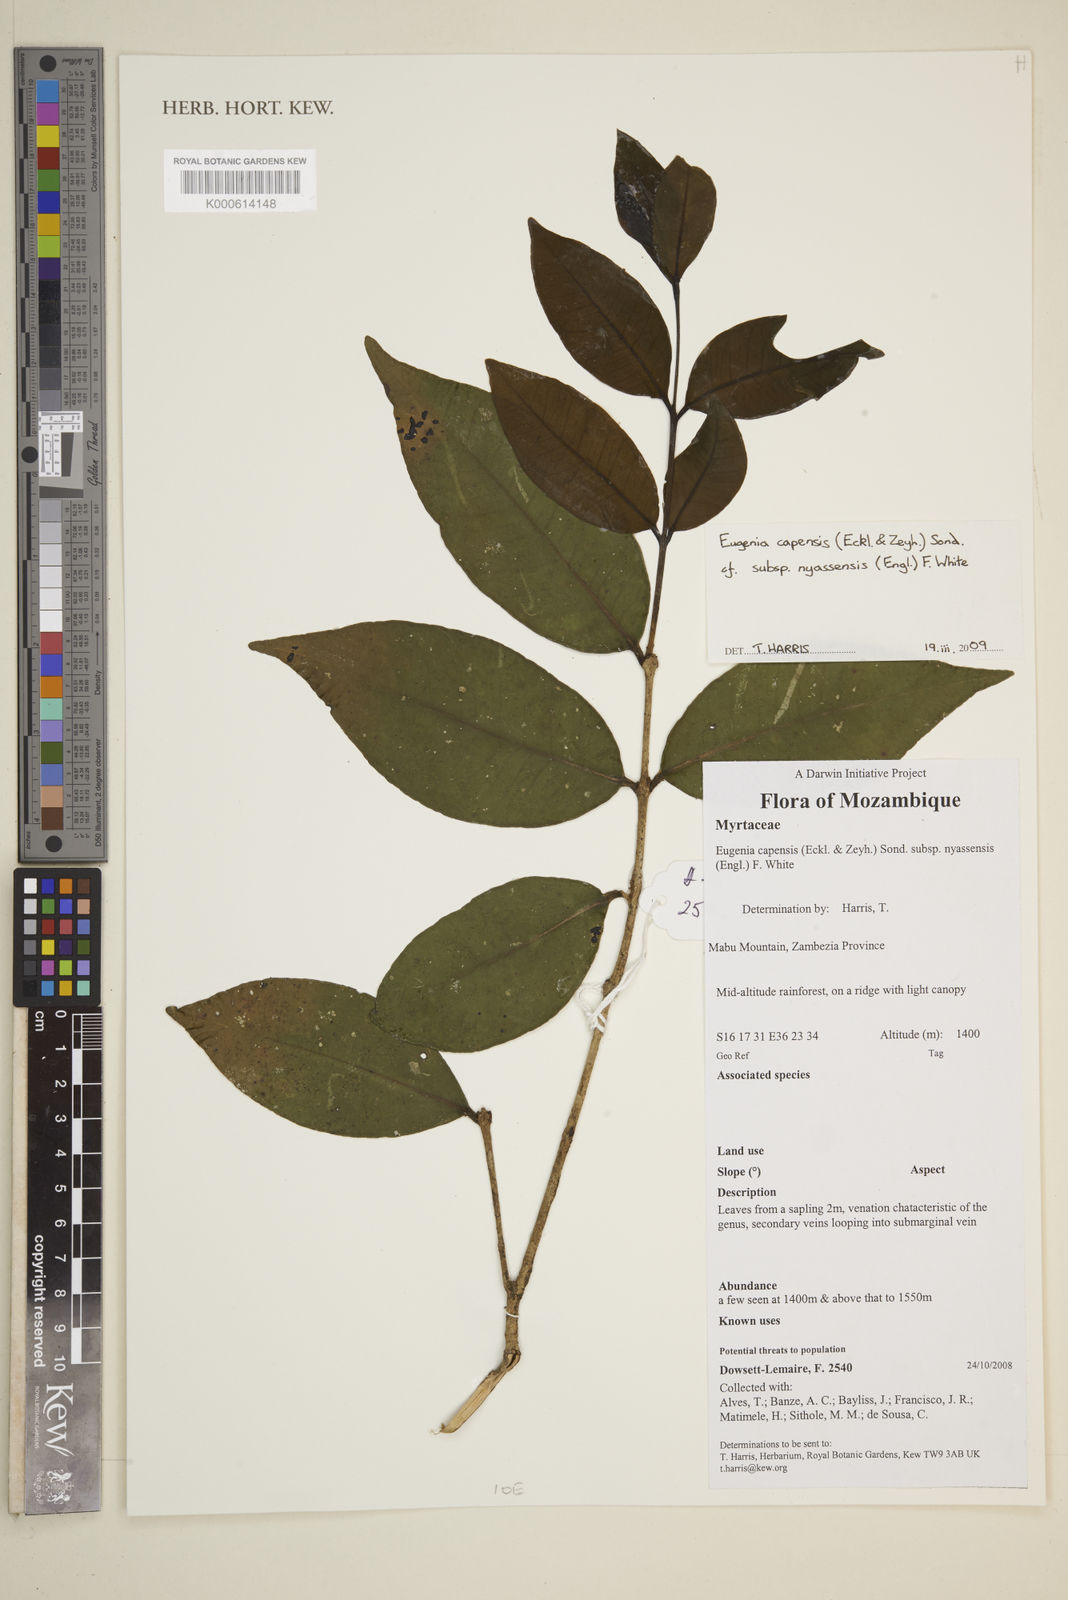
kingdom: Plantae
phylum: Tracheophyta
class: Magnoliopsida
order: Myrtales
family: Myrtaceae
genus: Eugenia
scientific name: Eugenia capensis
